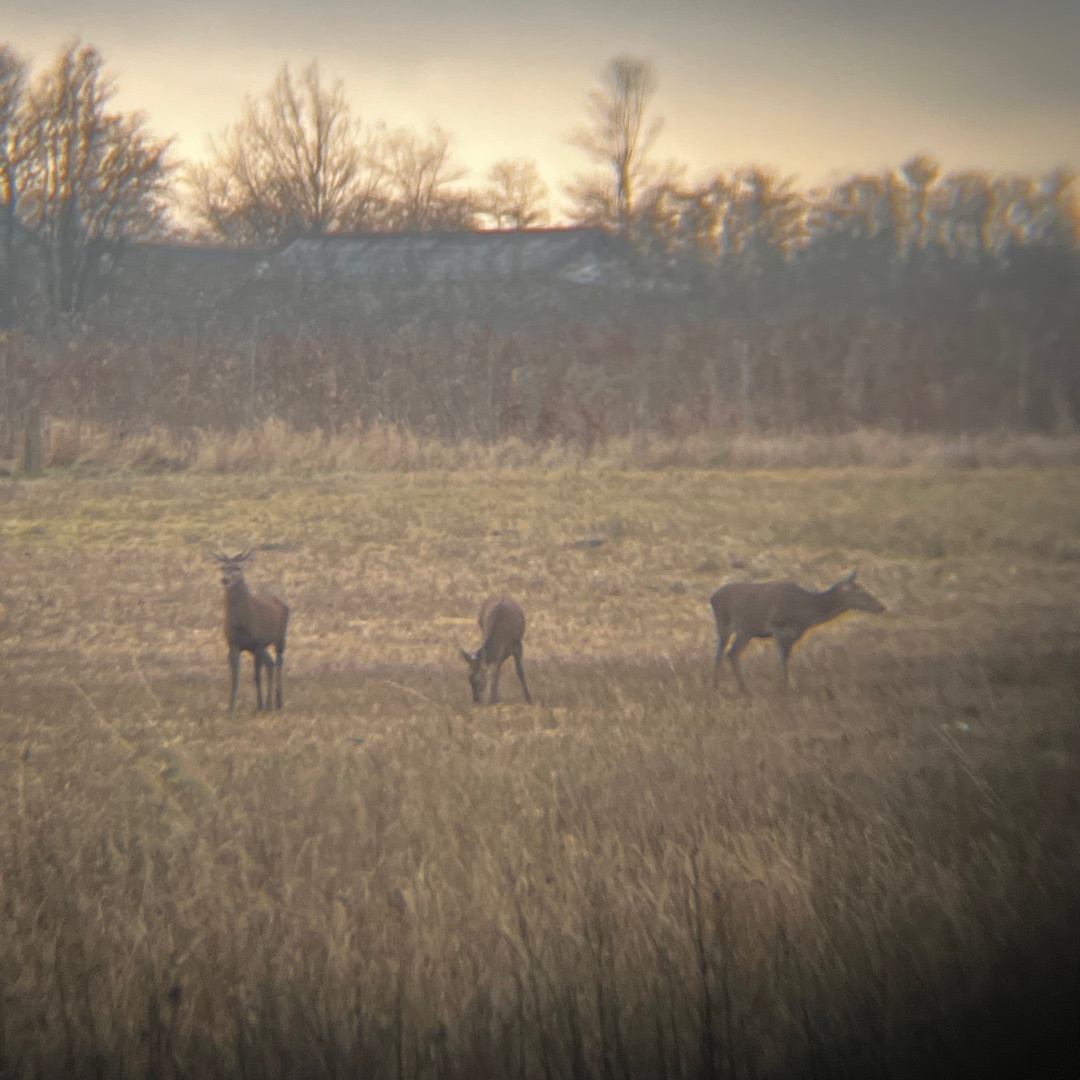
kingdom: Animalia
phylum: Chordata
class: Mammalia
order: Artiodactyla
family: Cervidae
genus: Cervus
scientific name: Cervus elaphus
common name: Krondyr
